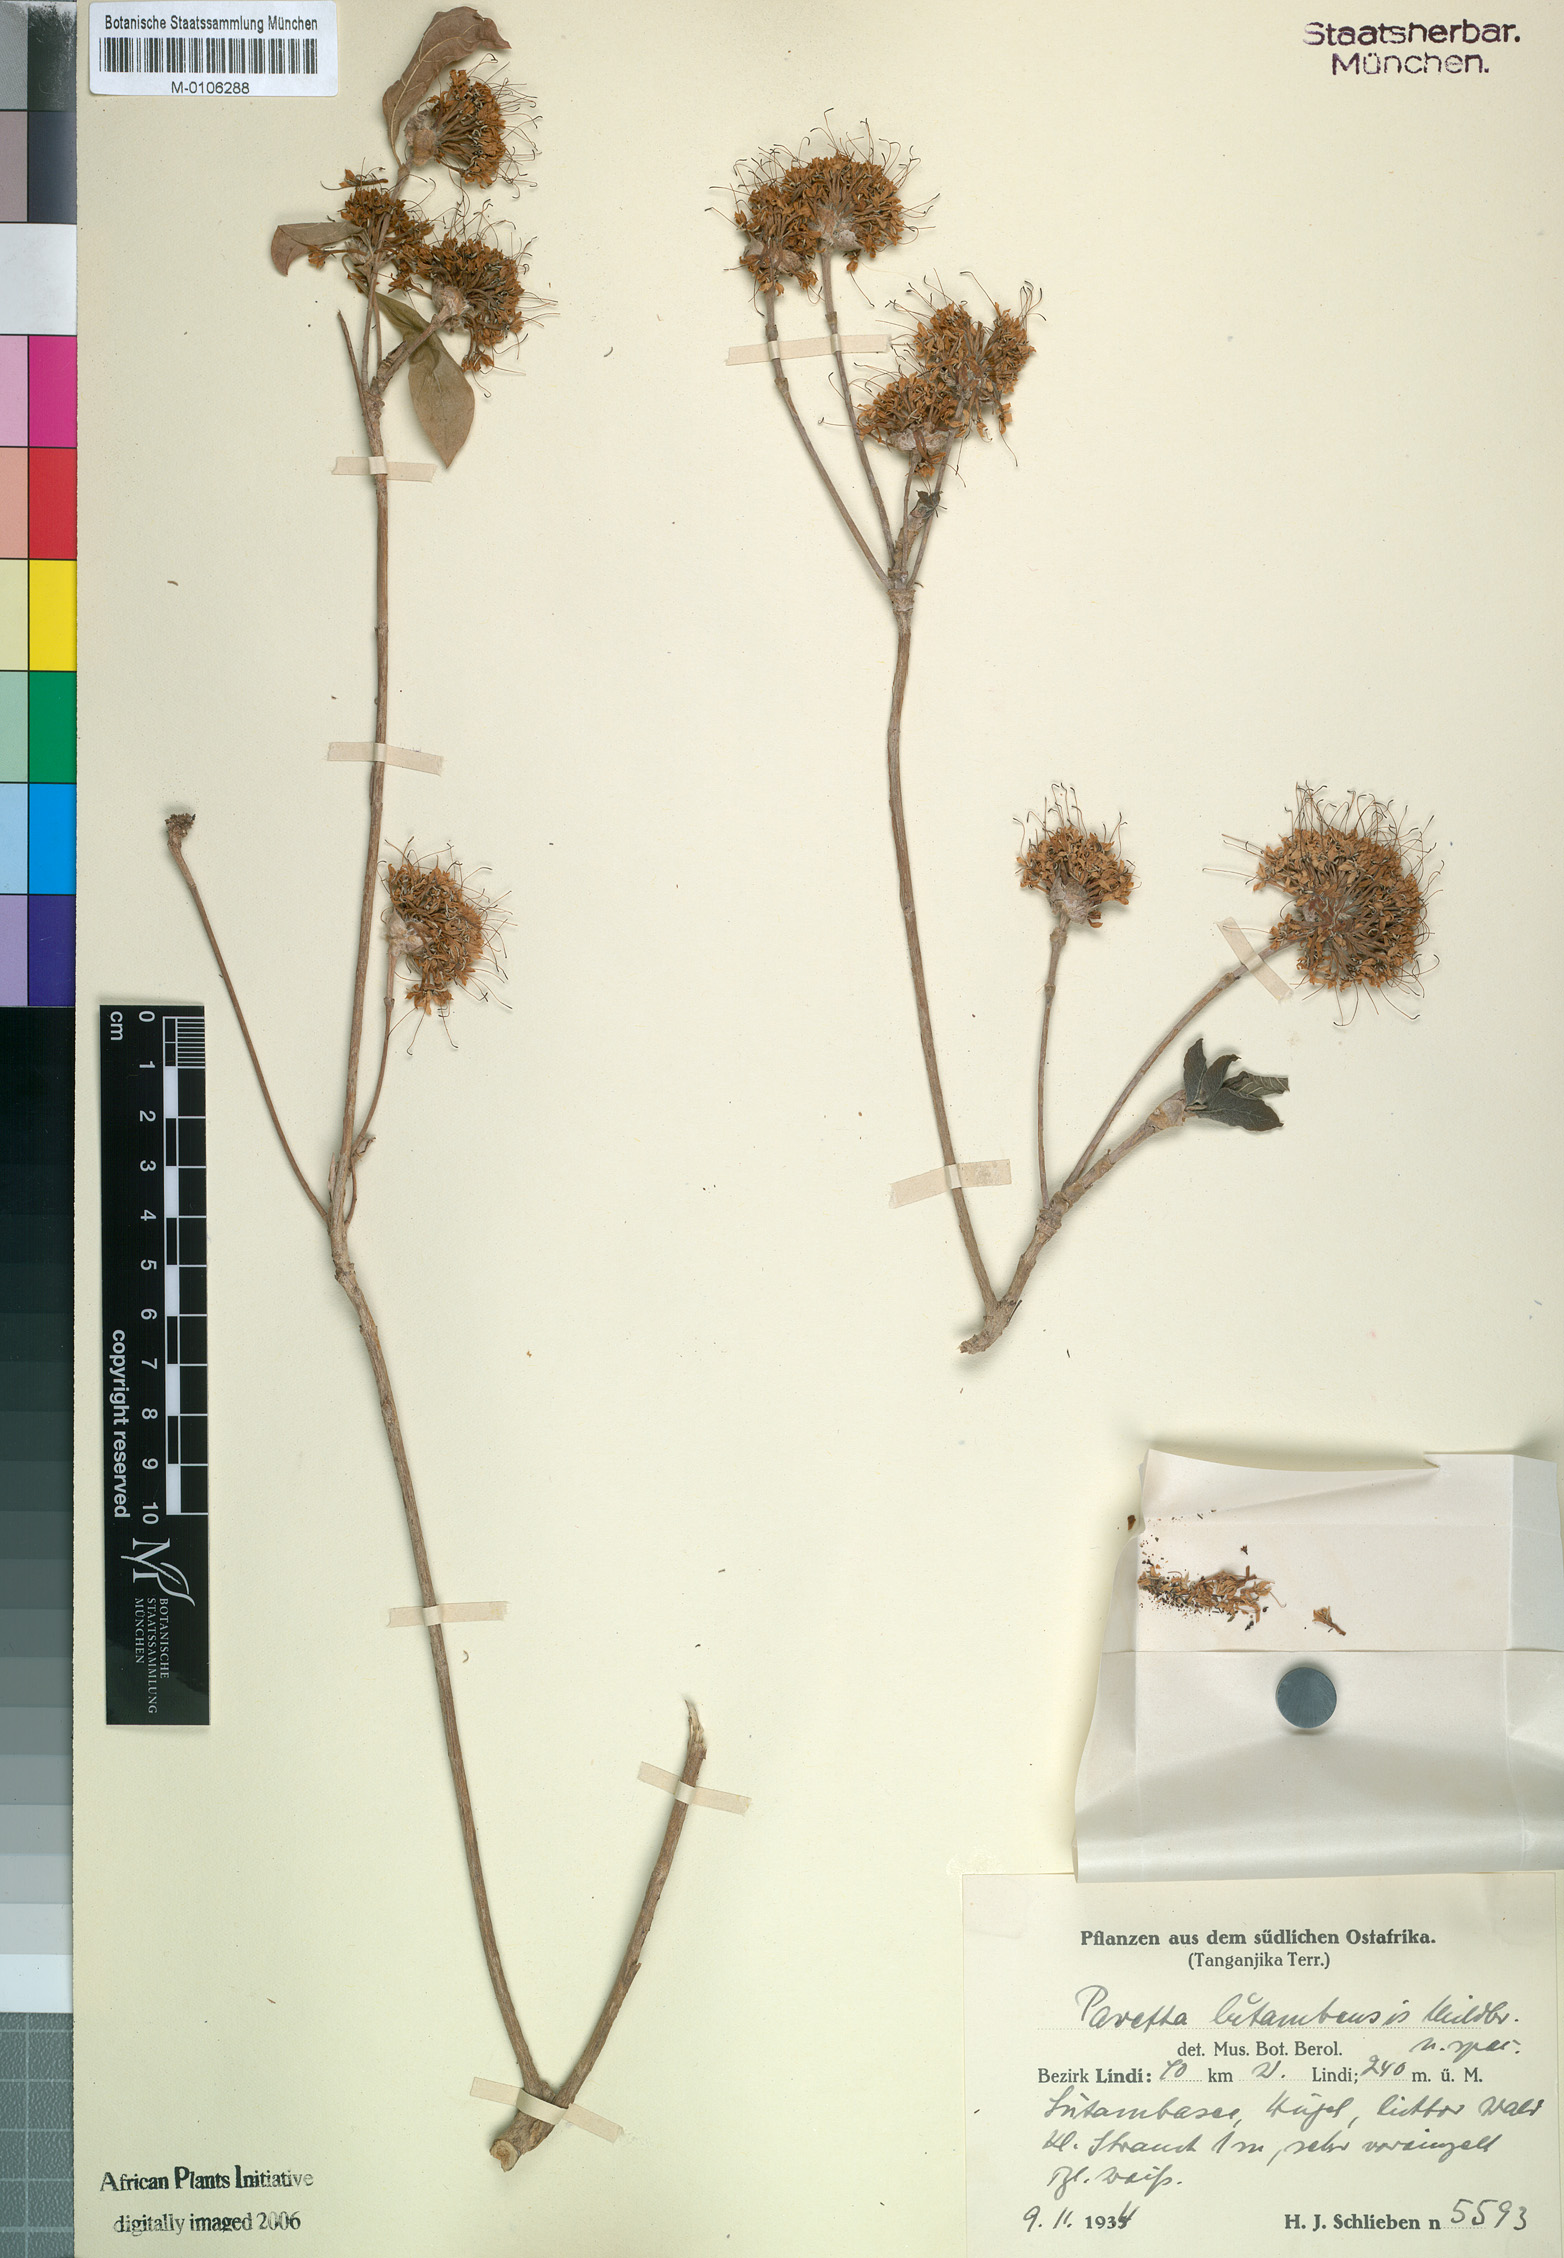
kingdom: Plantae
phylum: Tracheophyta
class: Magnoliopsida
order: Gentianales
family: Rubiaceae
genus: Pavetta
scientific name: Pavetta lutambensis
